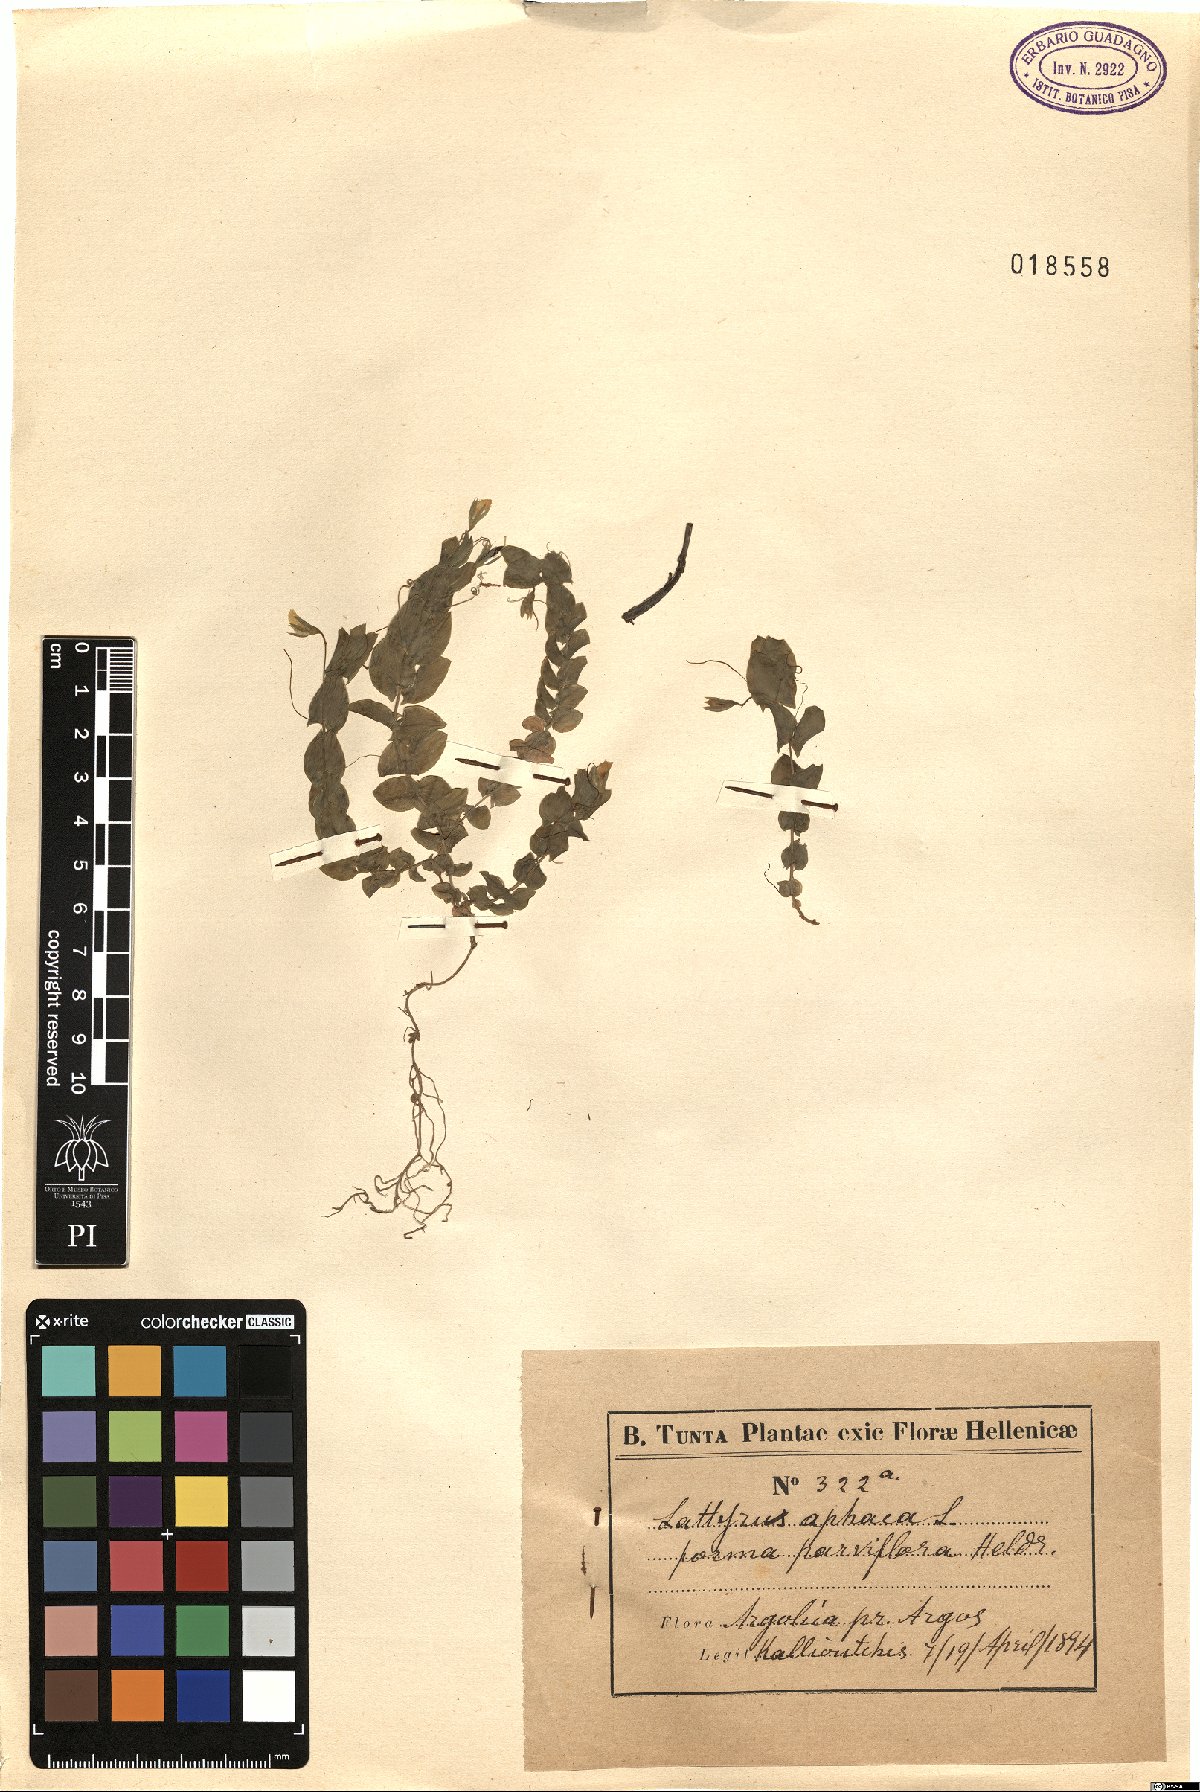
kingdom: Plantae
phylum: Tracheophyta
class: Magnoliopsida
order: Fabales
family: Fabaceae
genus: Lathyrus
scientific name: Lathyrus aphaca
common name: Yellow vetchling
